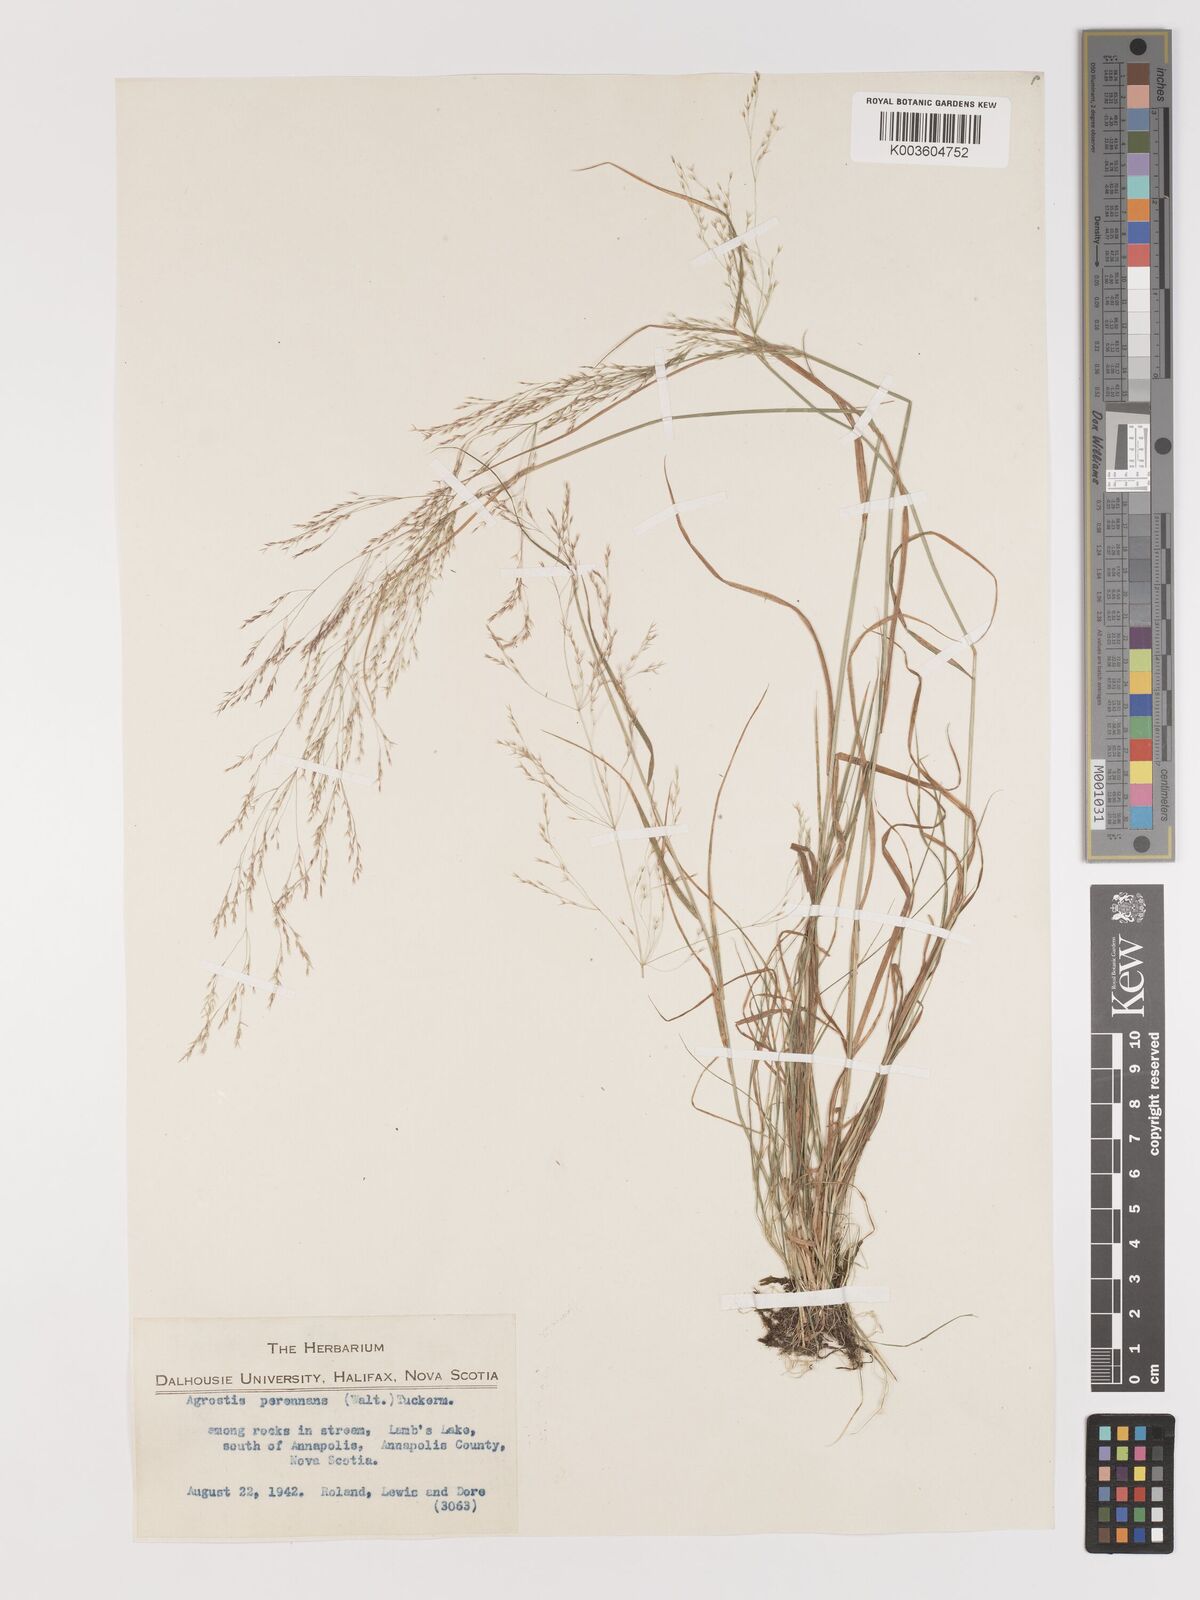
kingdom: Plantae
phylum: Tracheophyta
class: Liliopsida
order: Poales
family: Poaceae
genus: Agrostis
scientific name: Agrostis perennans
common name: Autumn bent
